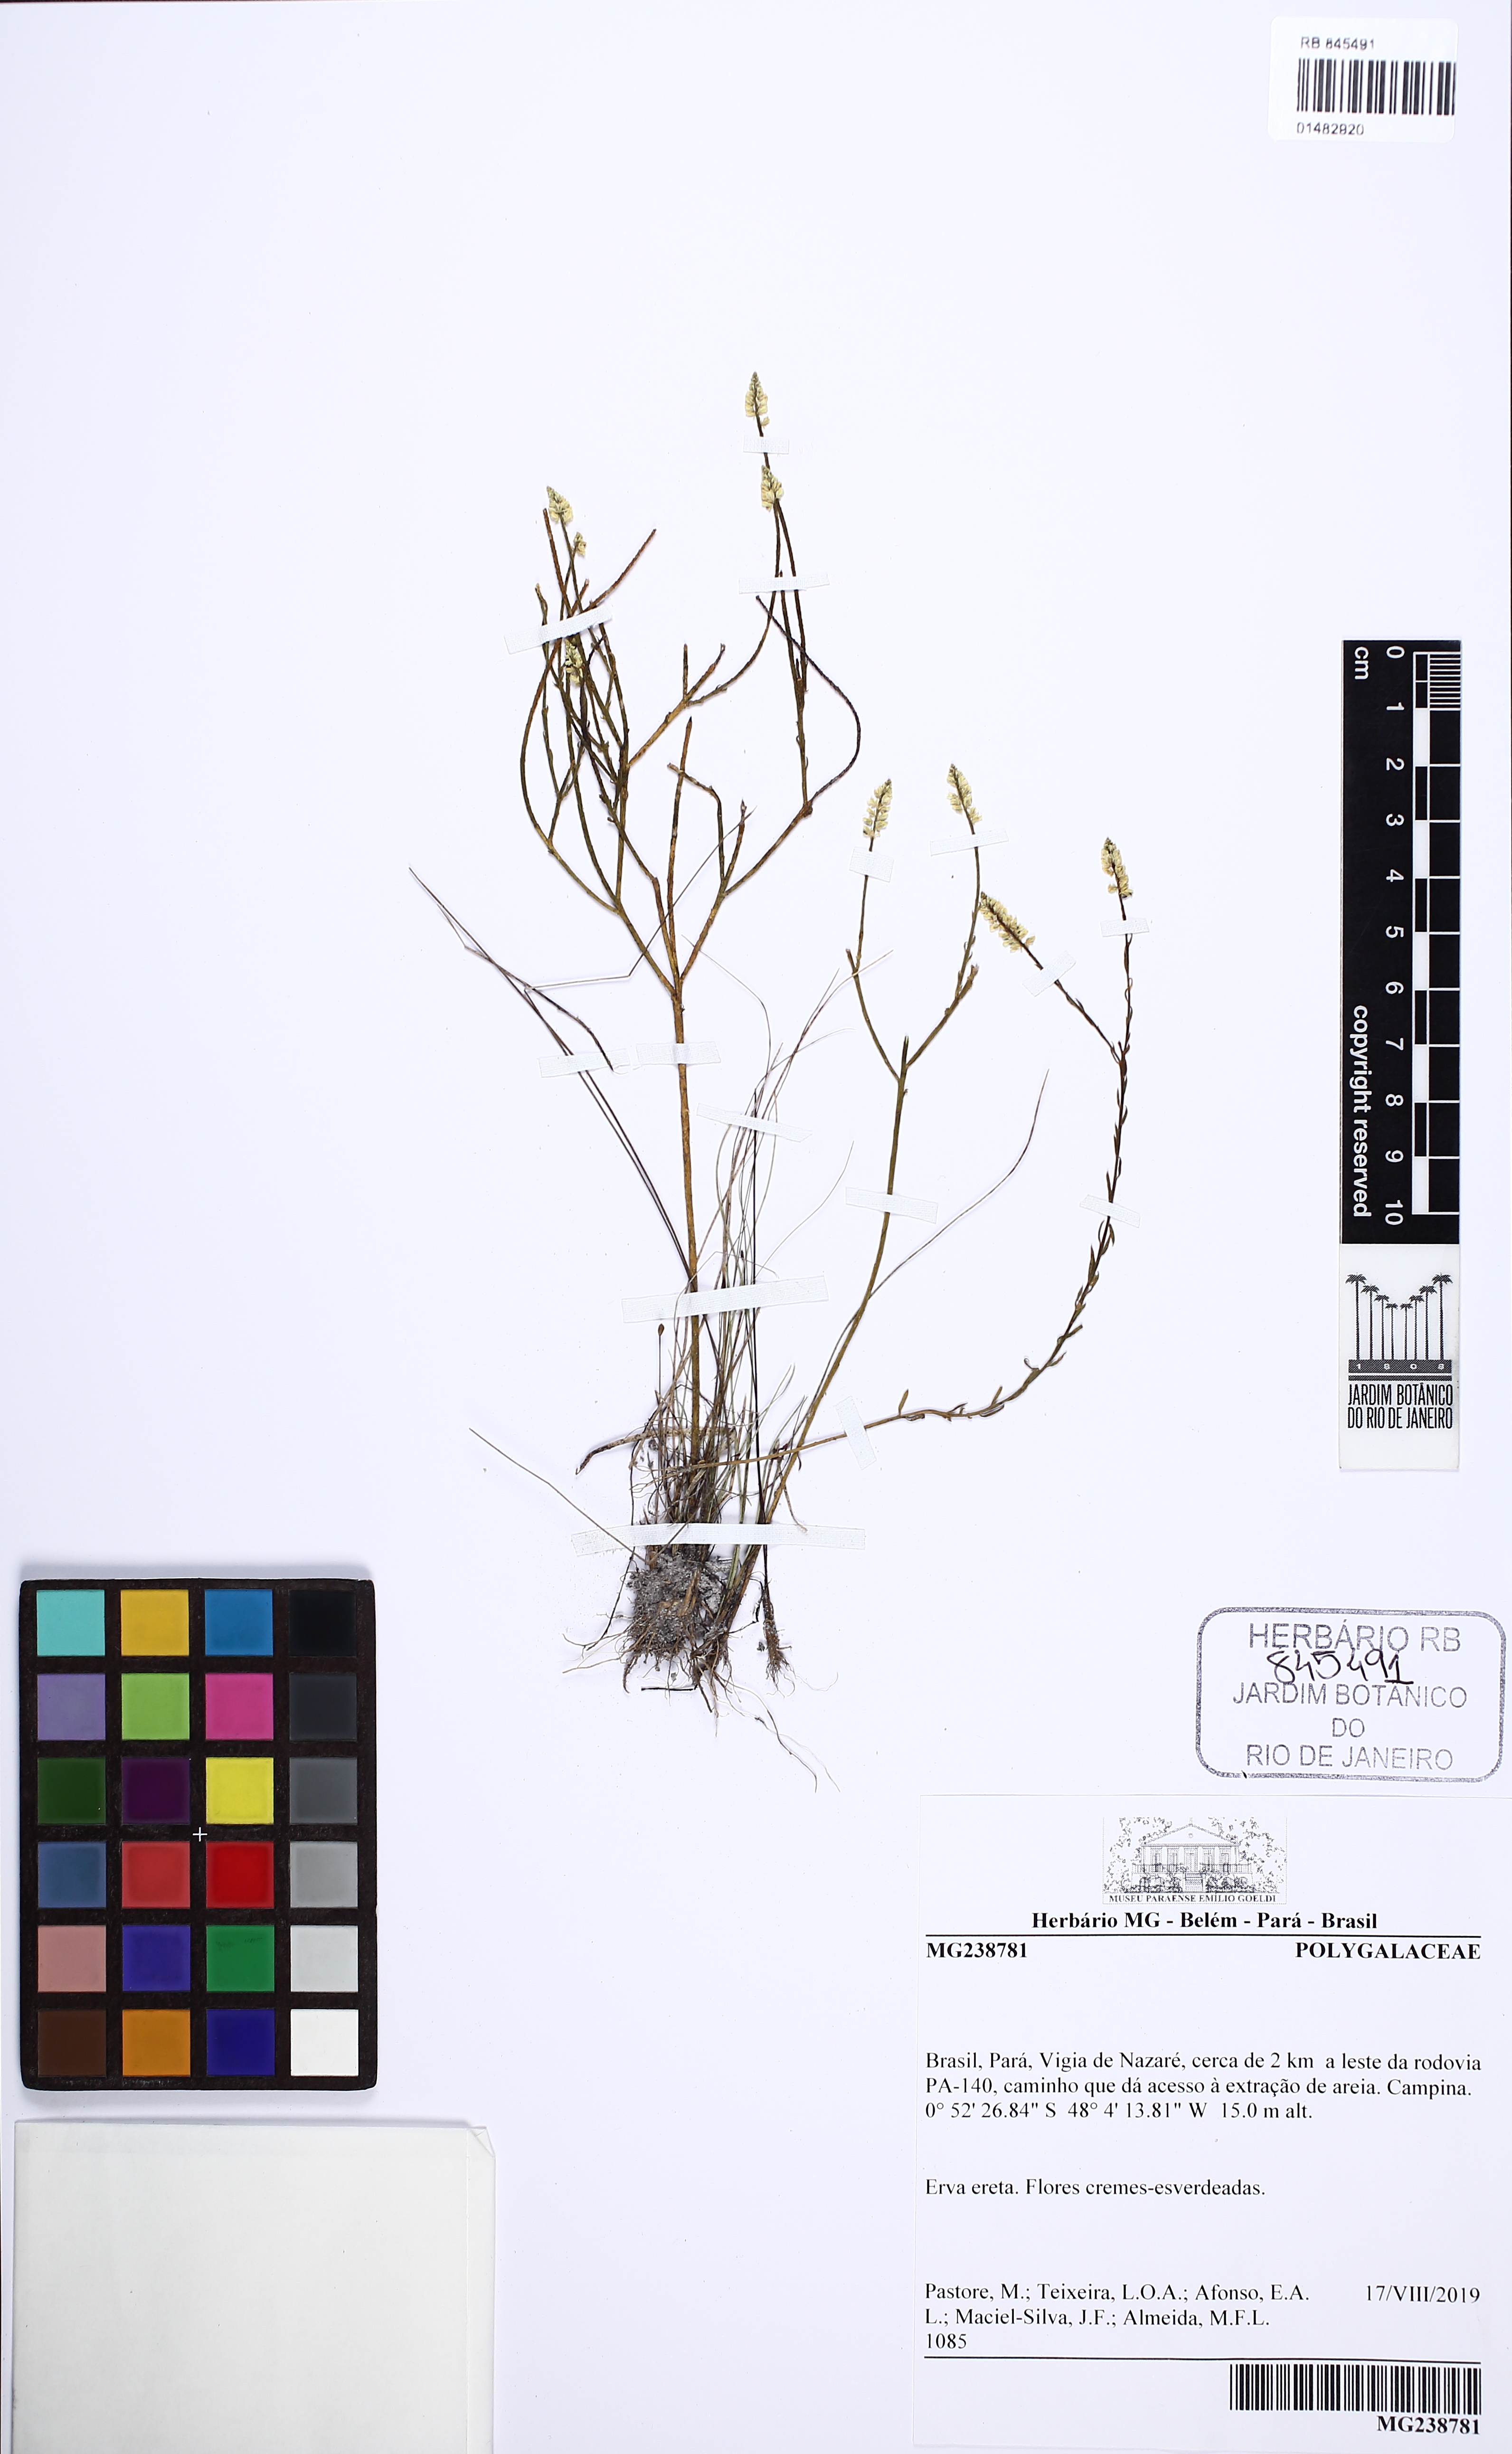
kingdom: Plantae
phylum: Tracheophyta
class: Magnoliopsida
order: Fabales
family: Polygalaceae
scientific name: Polygalaceae
